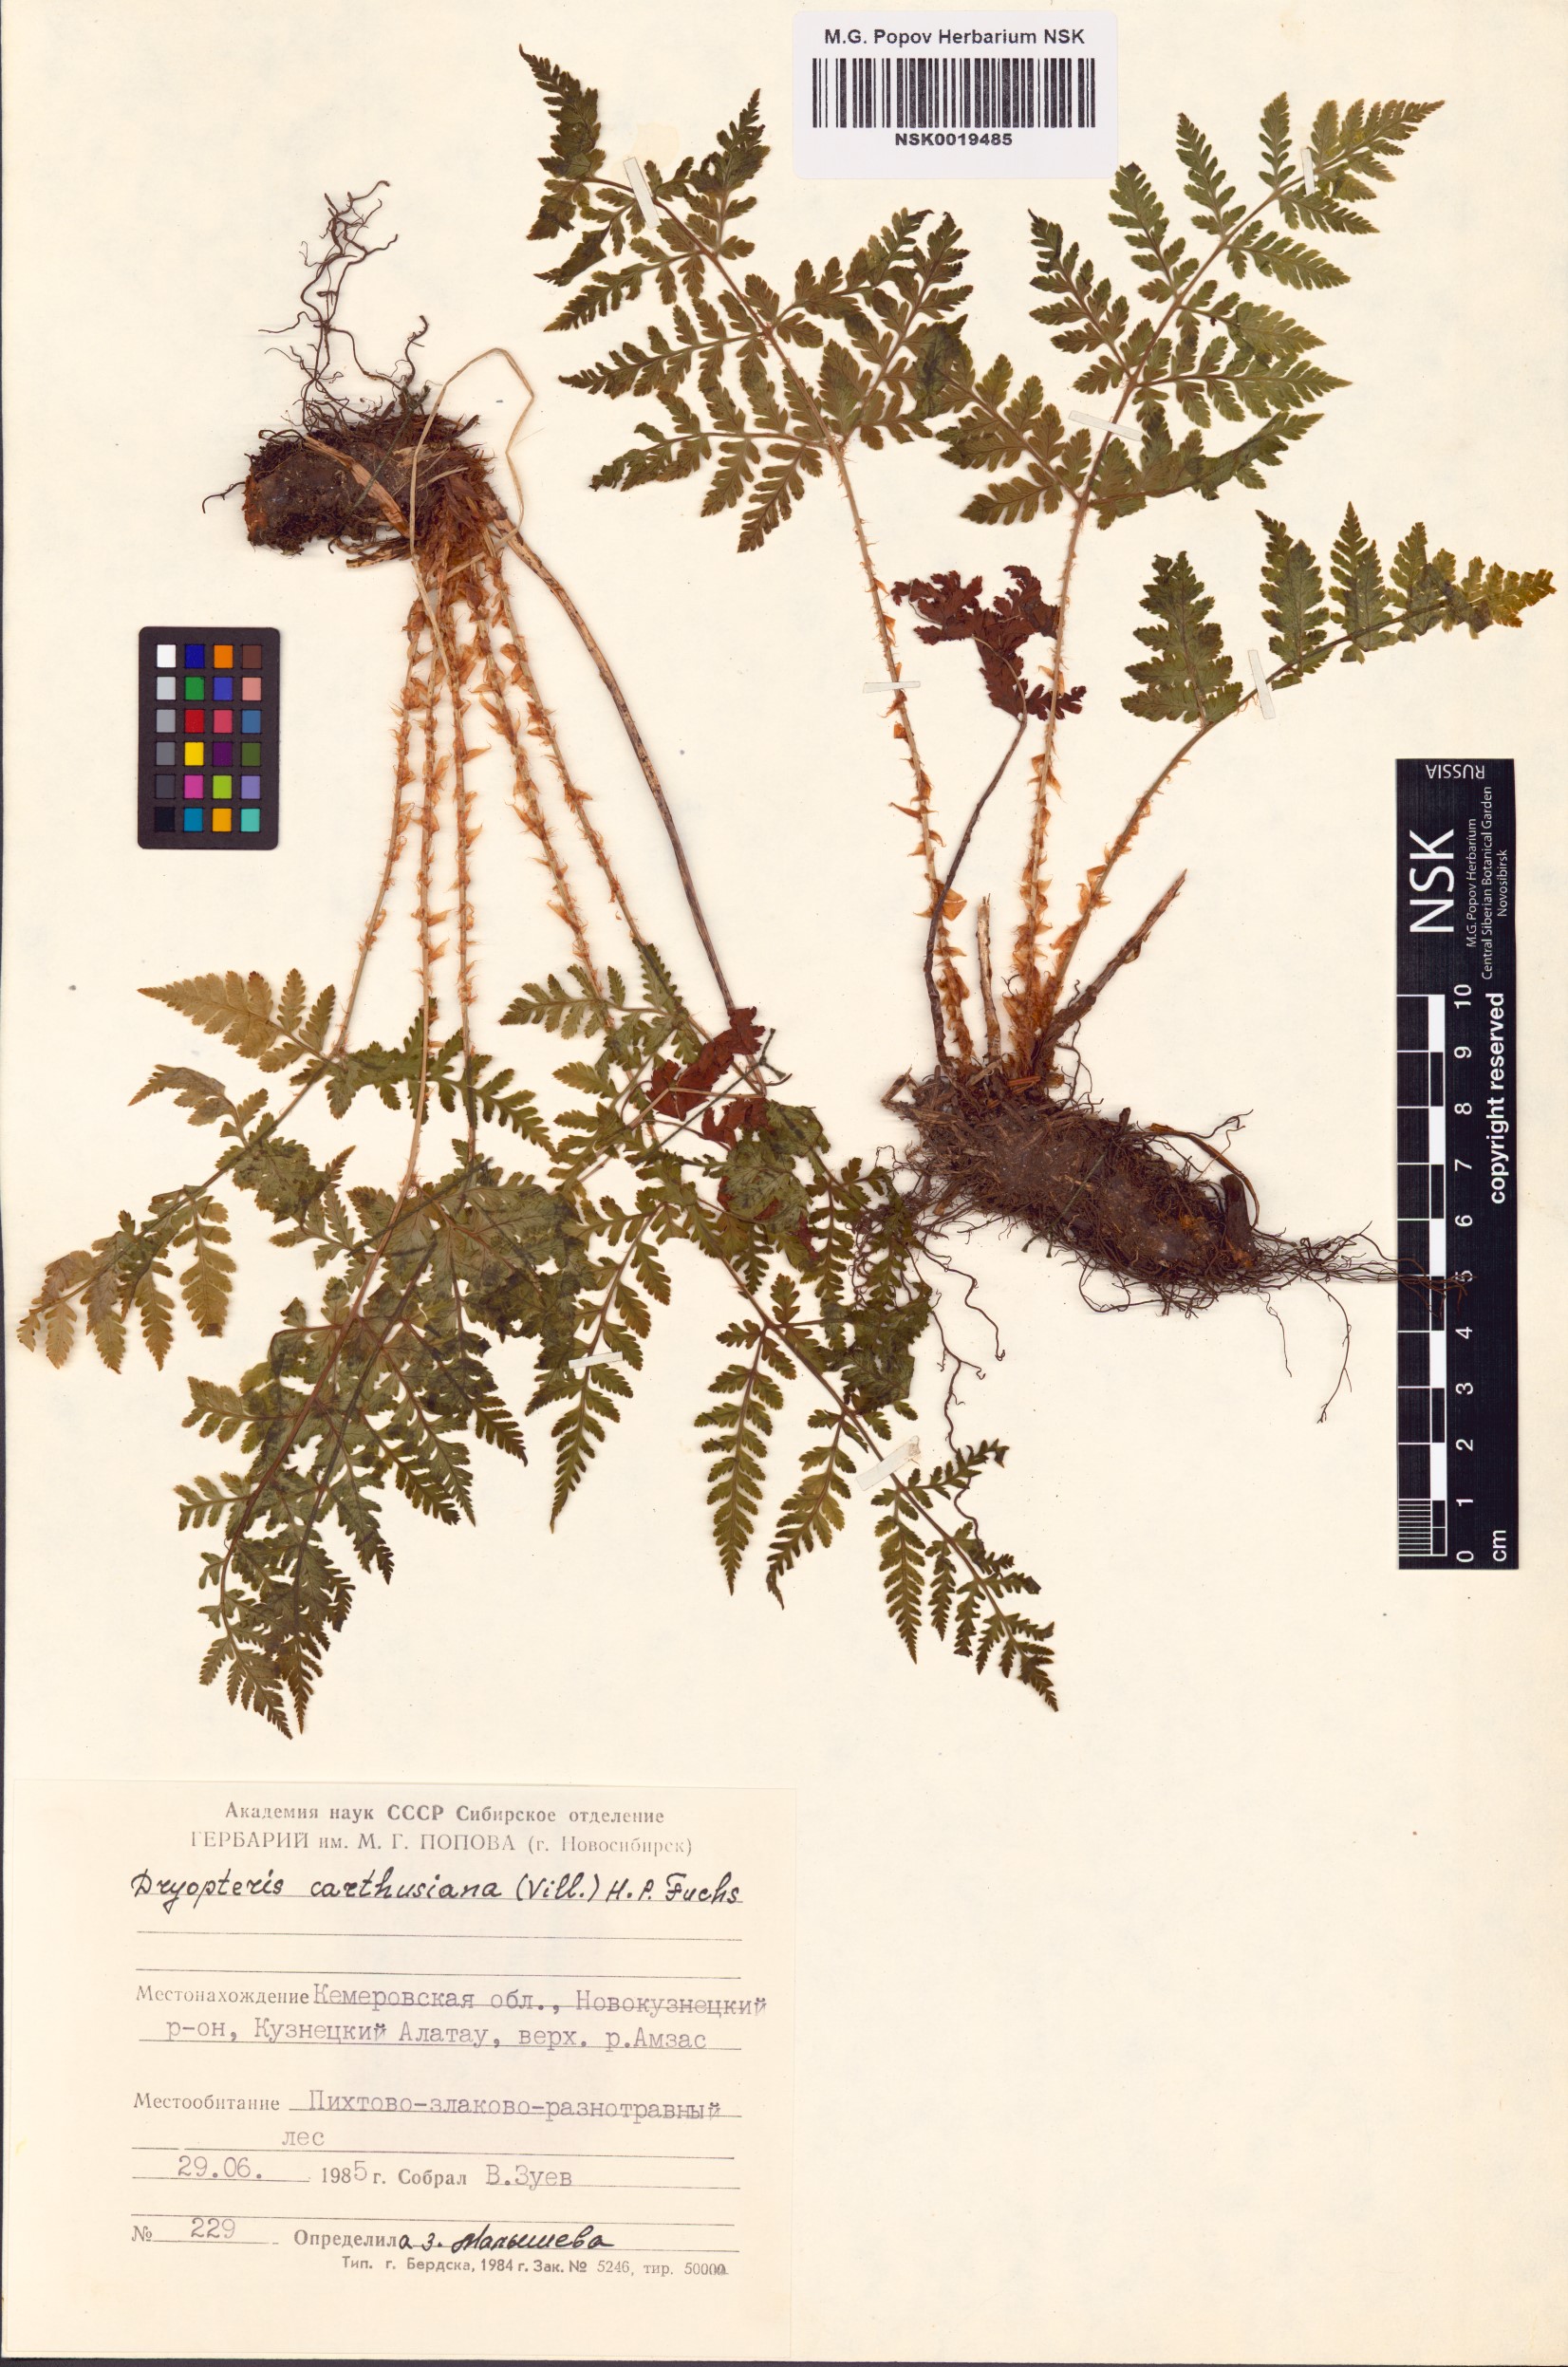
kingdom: Plantae
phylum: Tracheophyta
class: Polypodiopsida
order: Polypodiales
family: Dryopteridaceae
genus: Dryopteris
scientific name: Dryopteris carthusiana
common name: Narrow buckler-fern
